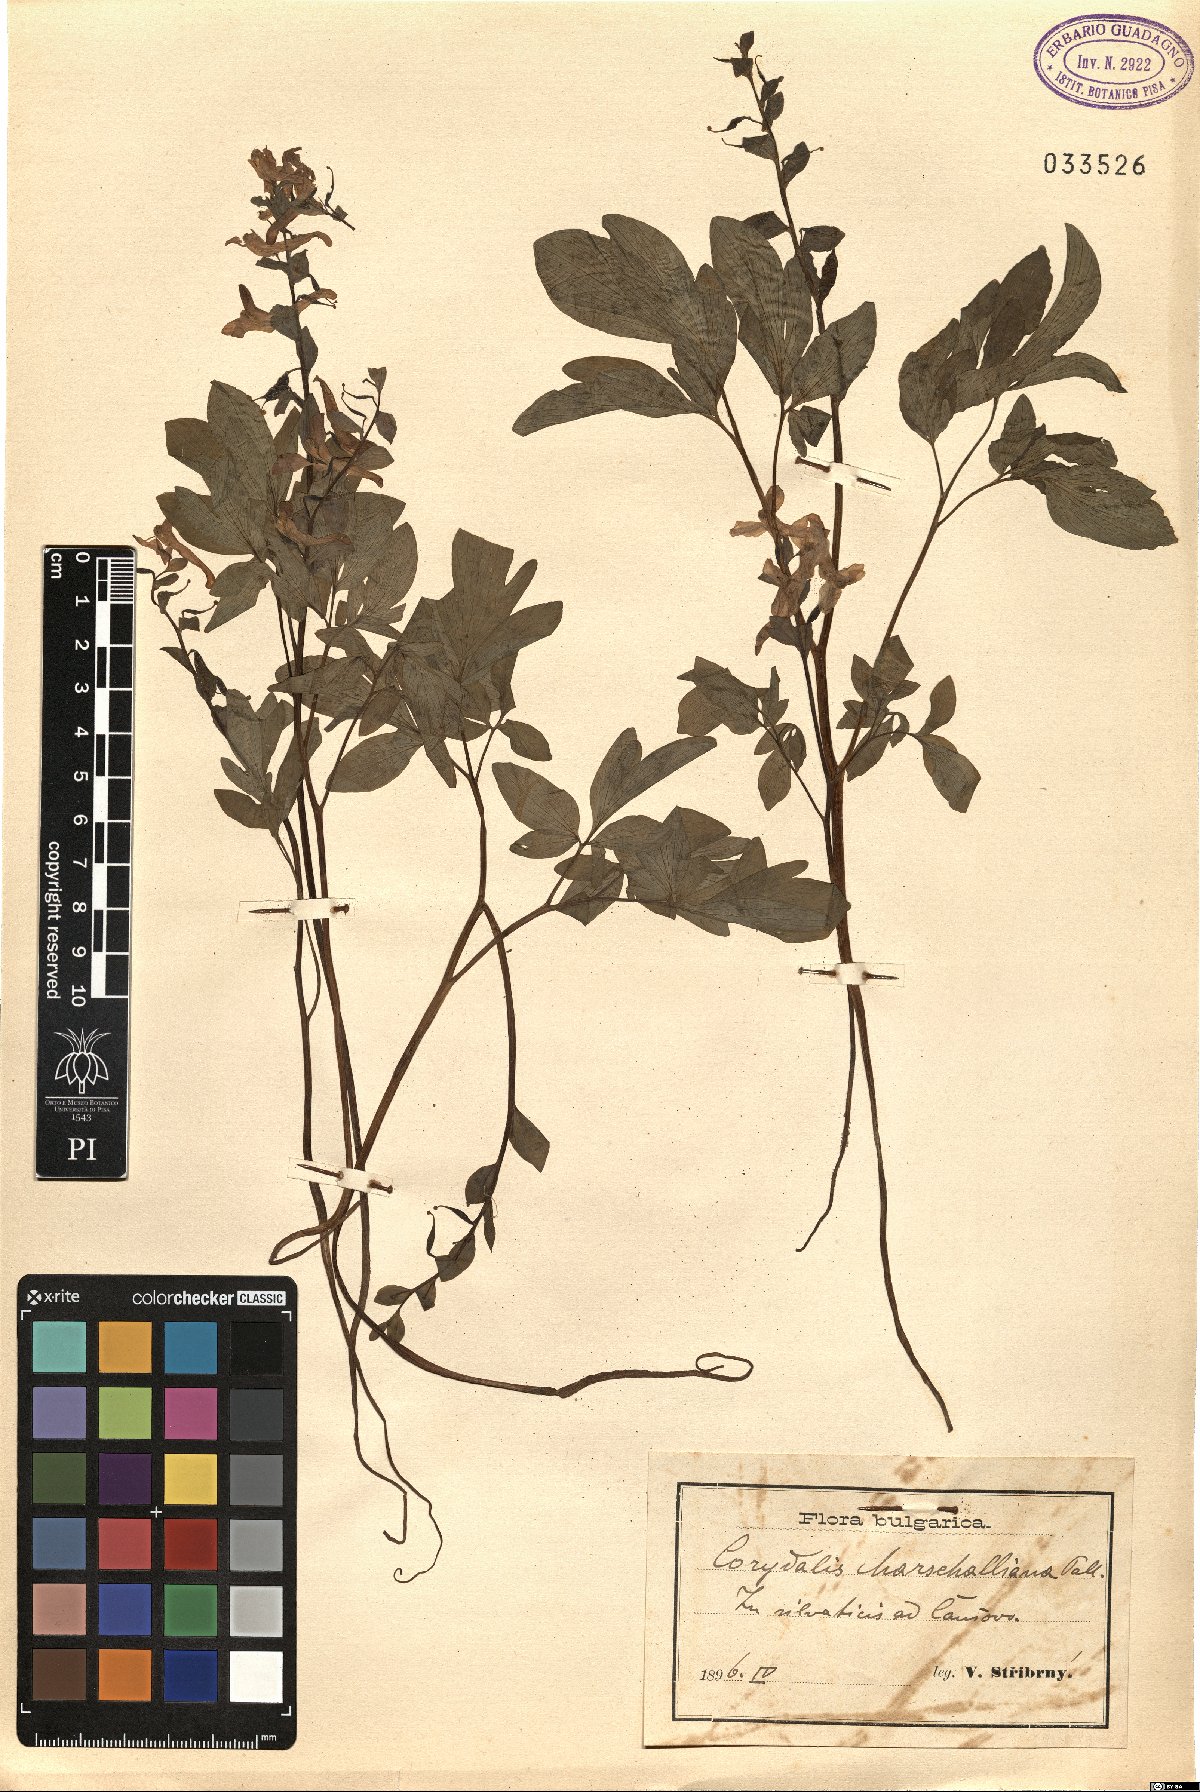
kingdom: Plantae
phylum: Tracheophyta
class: Magnoliopsida
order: Ranunculales
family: Papaveraceae
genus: Corydalis
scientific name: Corydalis cava
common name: Hollowroot
